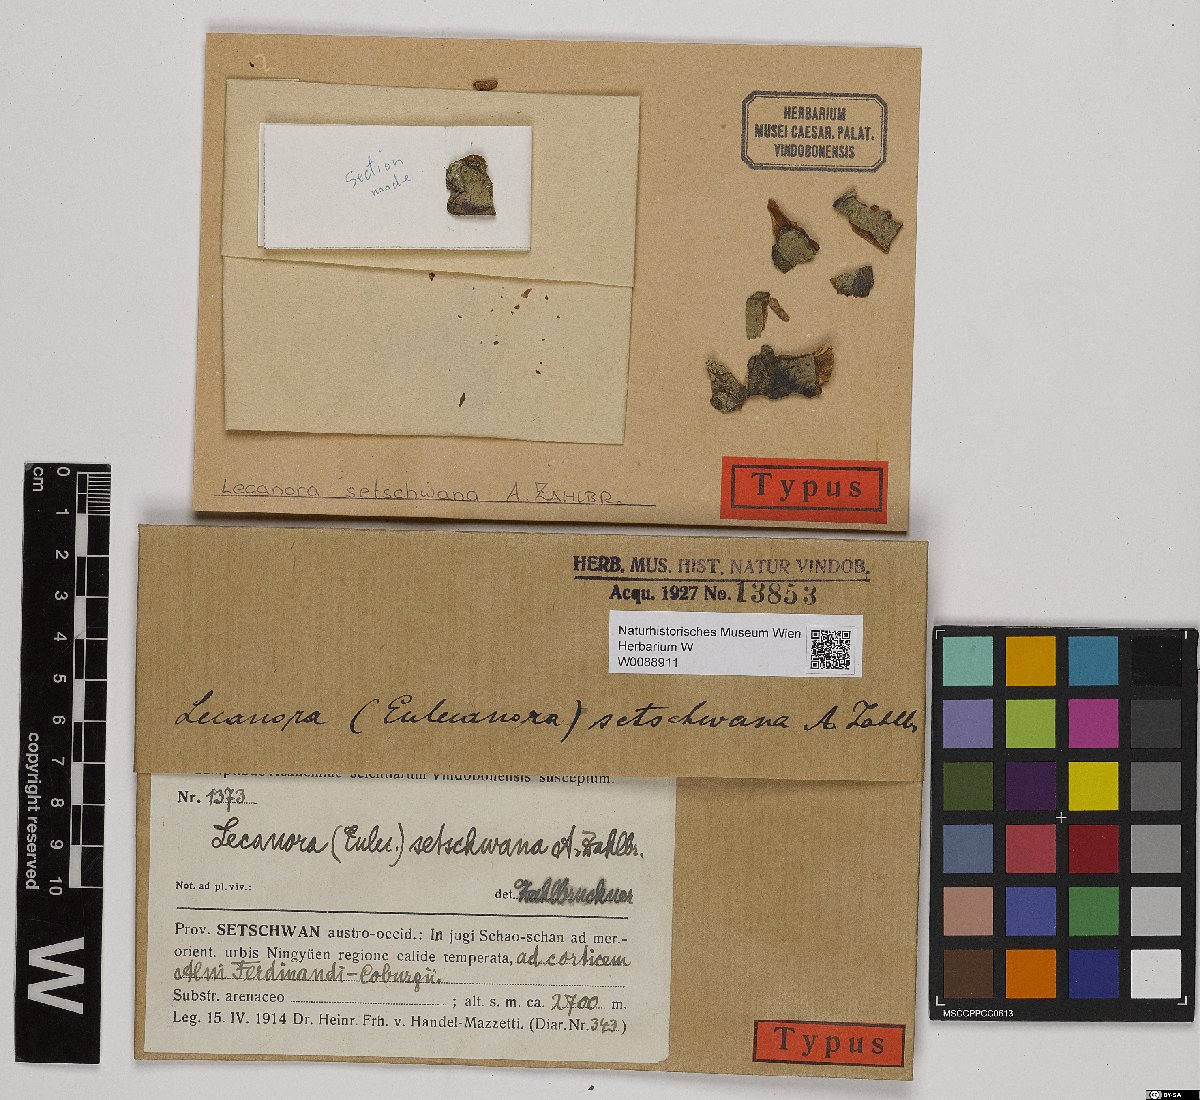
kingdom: Fungi
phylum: Ascomycota
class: Lecanoromycetes
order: Lecanorales
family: Lecanoraceae
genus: Lecanora
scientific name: Lecanora
